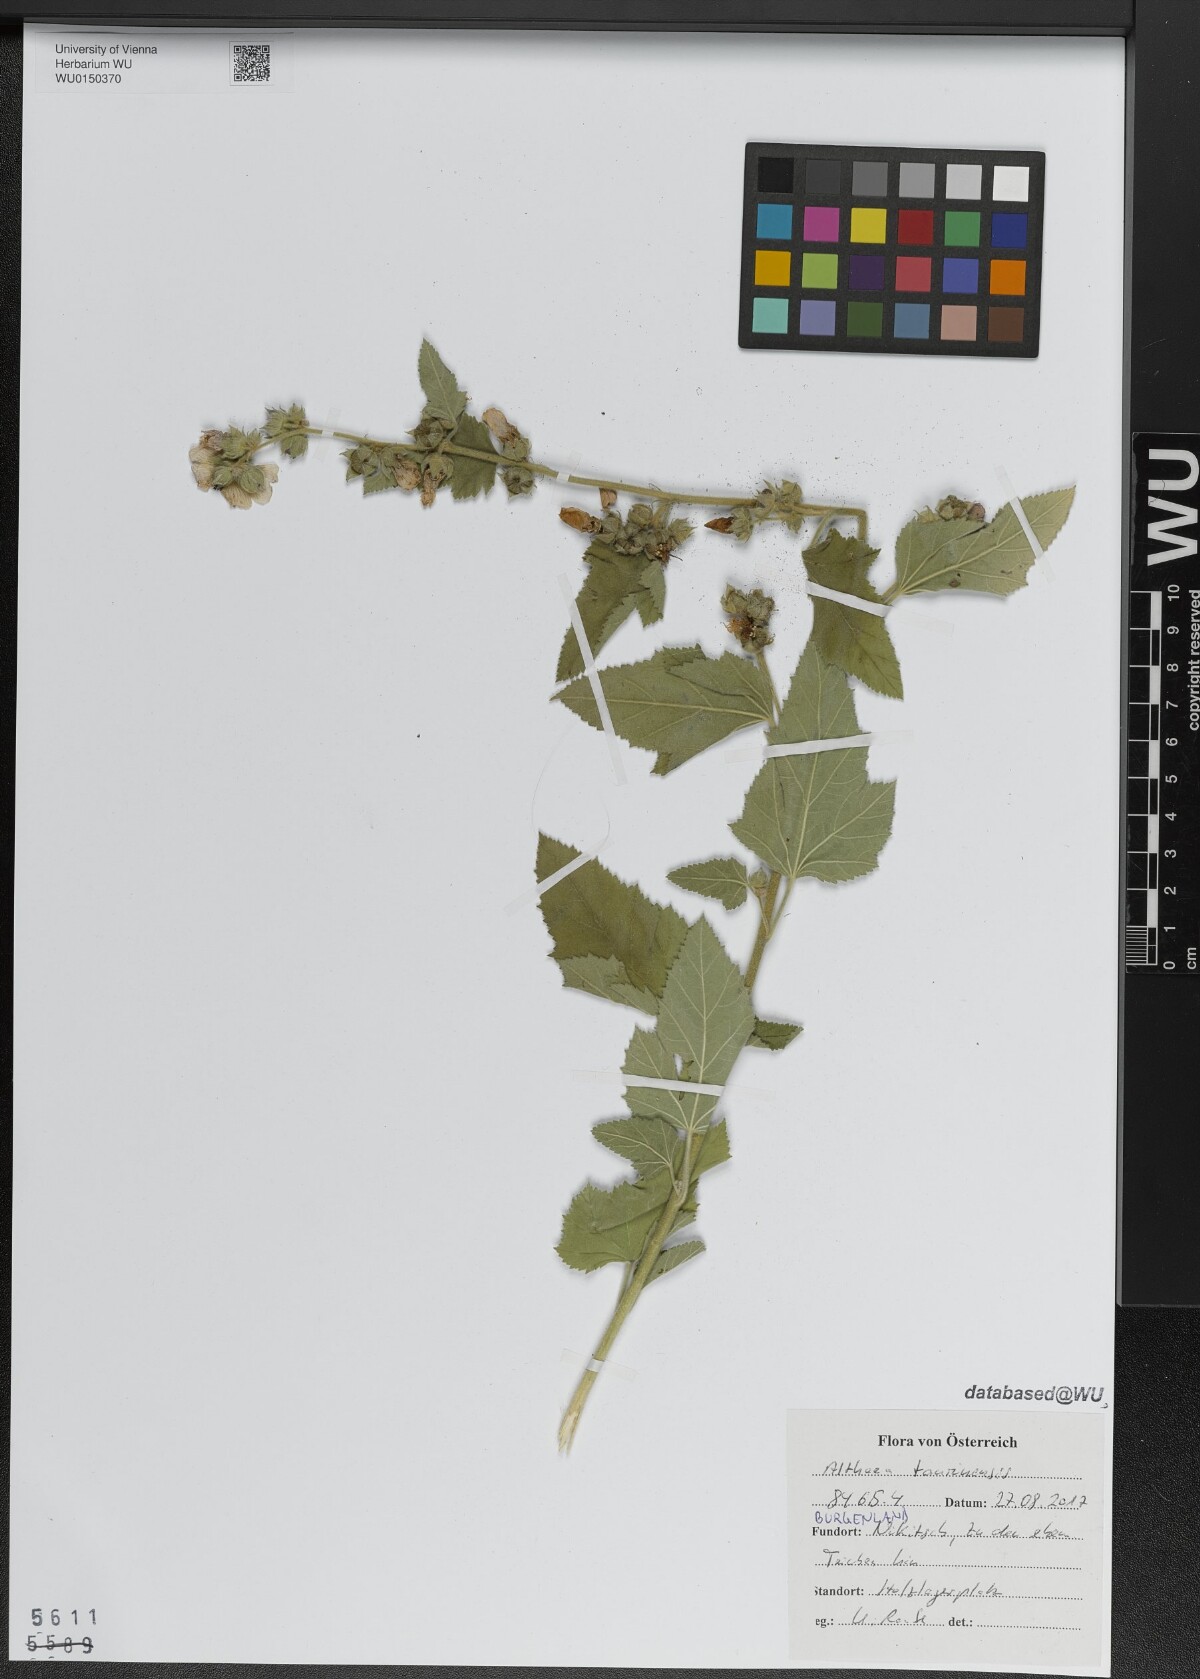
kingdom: Plantae
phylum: Tracheophyta
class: Magnoliopsida
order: Malvales
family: Malvaceae
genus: Althaea
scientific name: Althaea taurinensis
